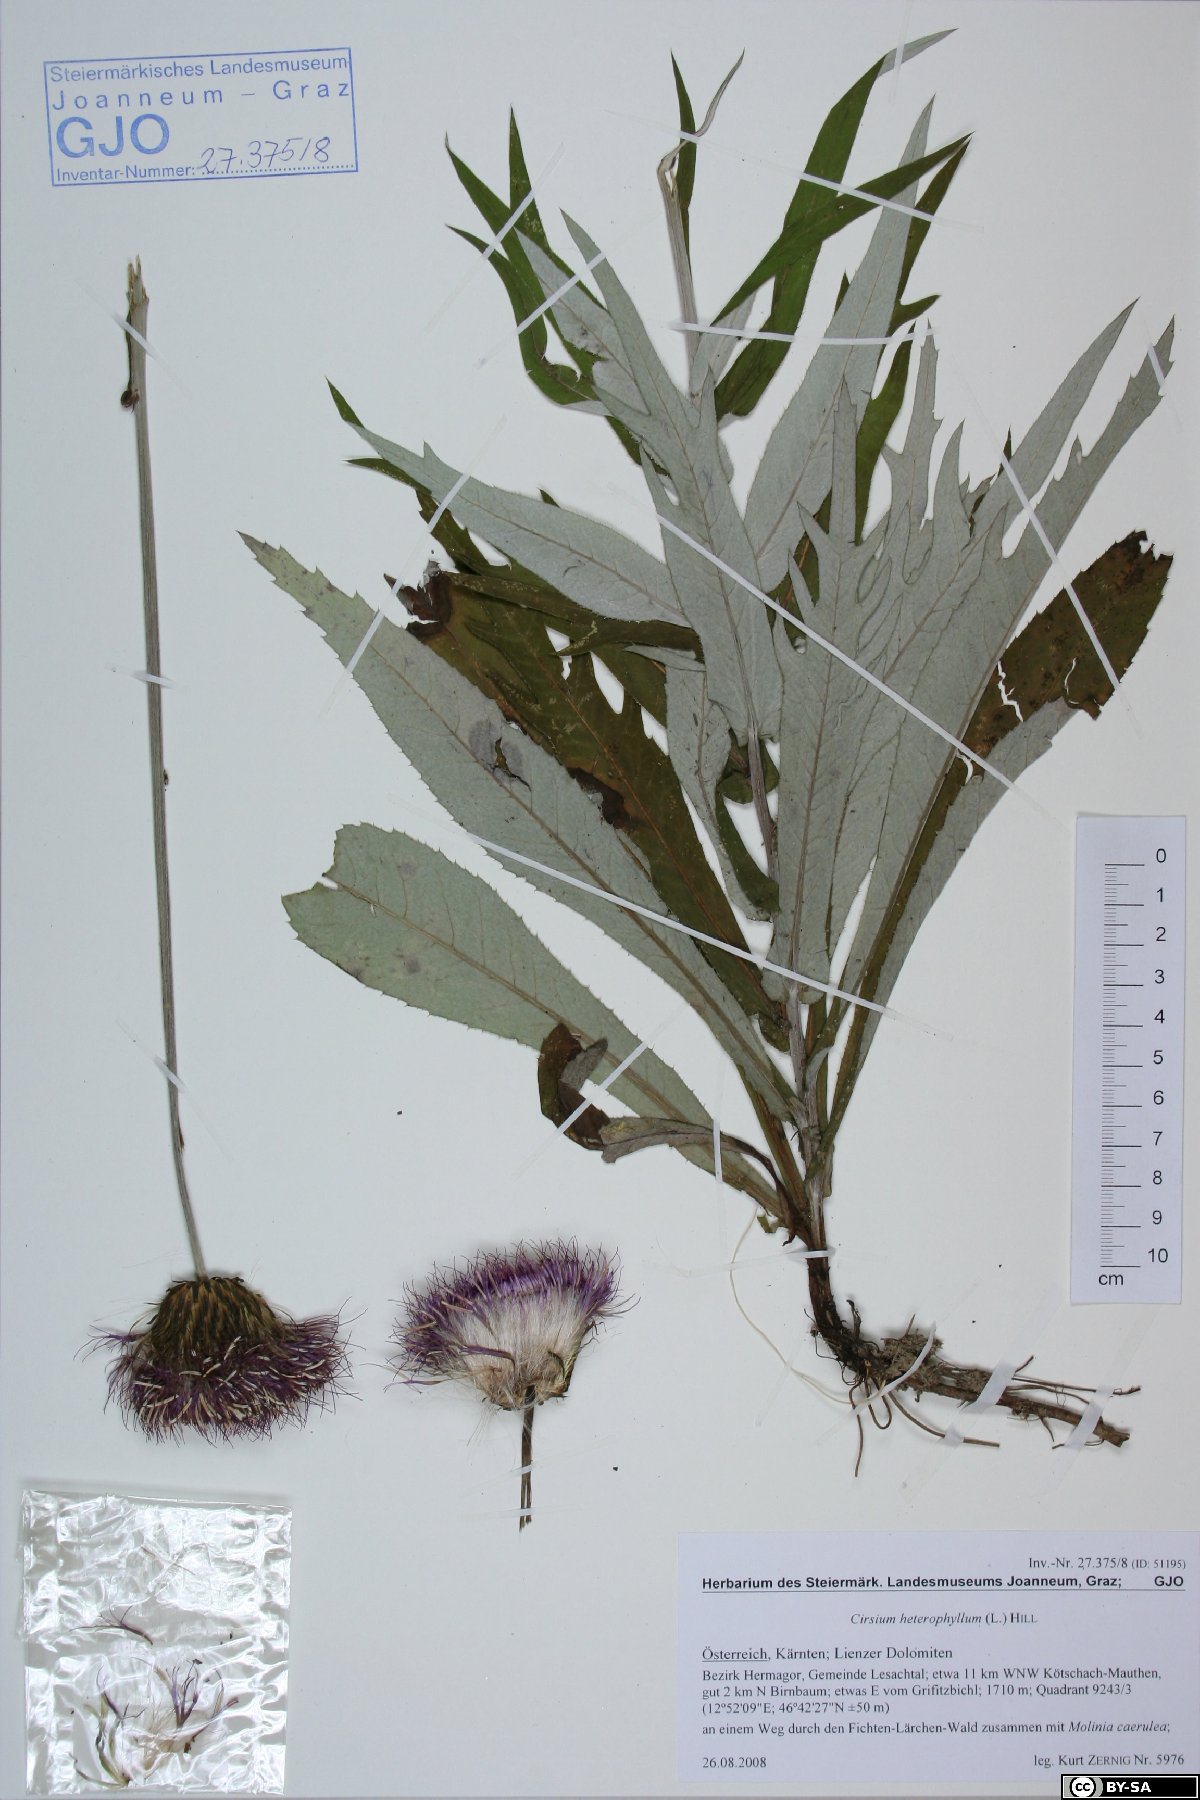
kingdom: Plantae
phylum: Tracheophyta
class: Magnoliopsida
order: Asterales
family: Asteraceae
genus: Cirsium
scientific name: Cirsium heterophyllum
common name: Melancholy thistle
